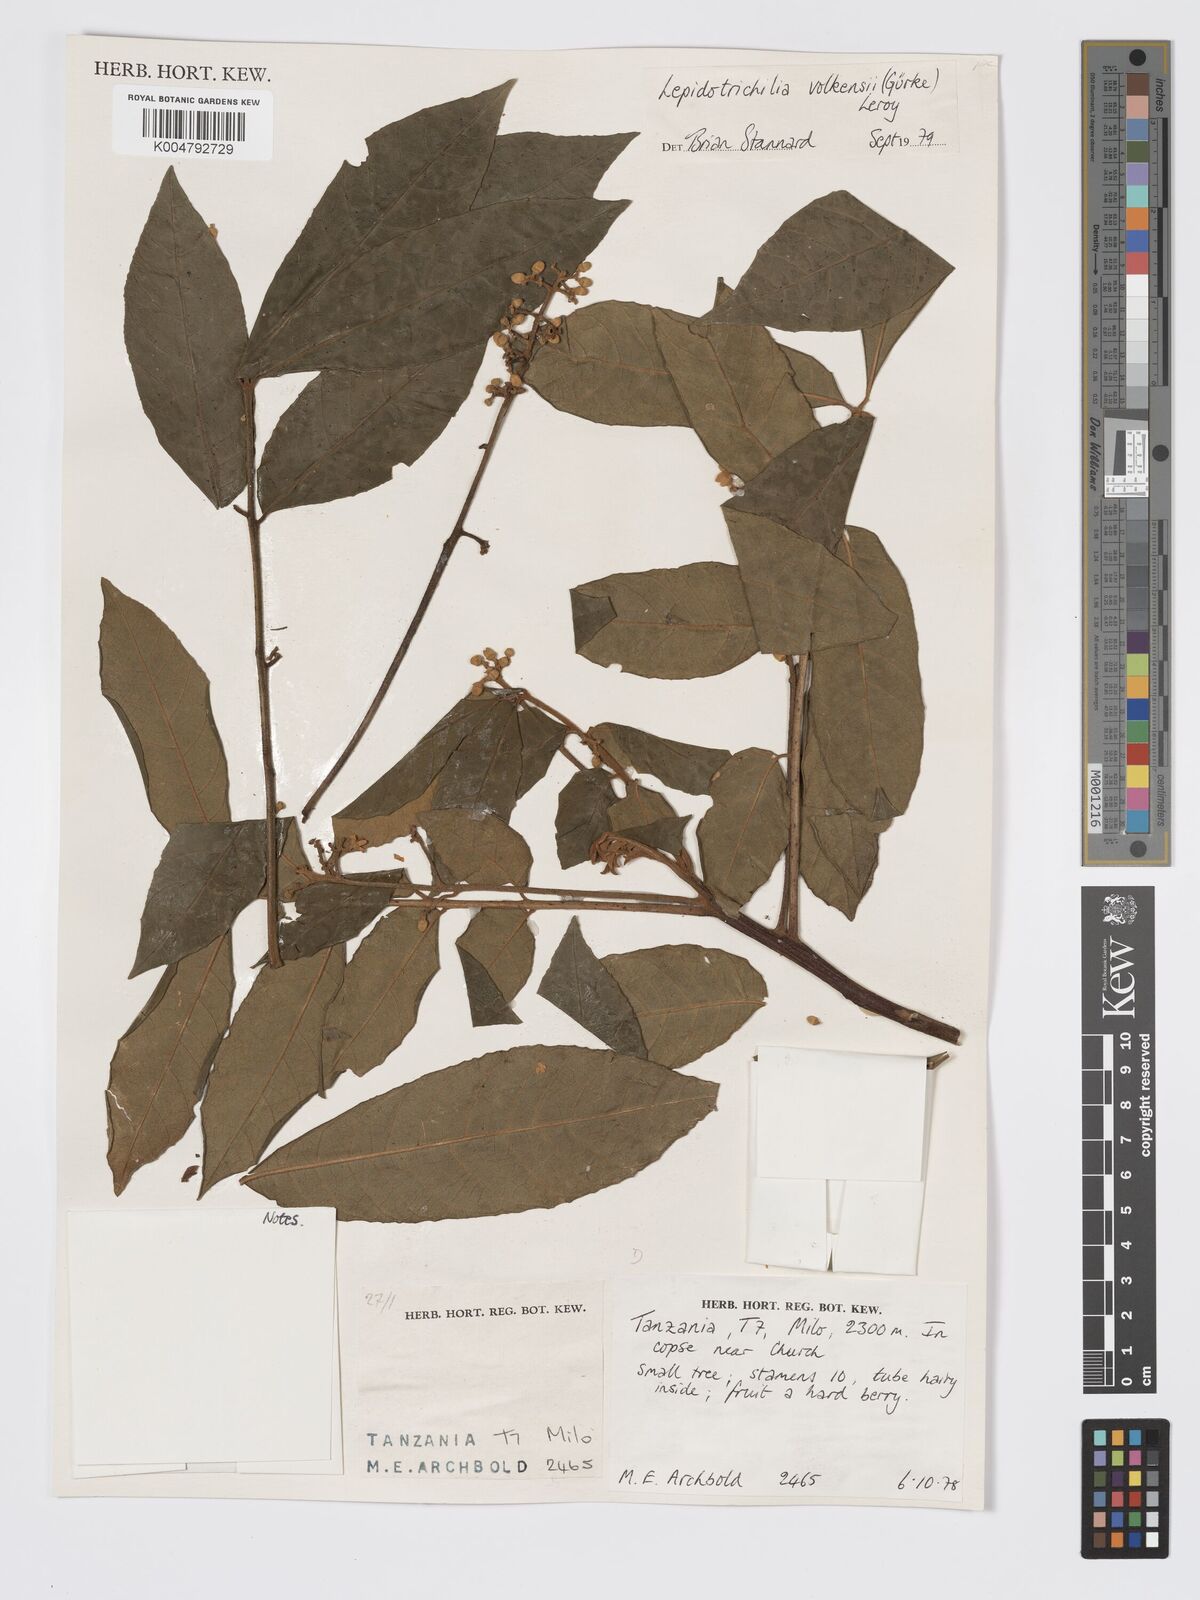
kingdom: Plantae
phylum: Tracheophyta
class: Magnoliopsida
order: Sapindales
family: Meliaceae
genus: Lepidotrichilia
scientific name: Lepidotrichilia volkensii
